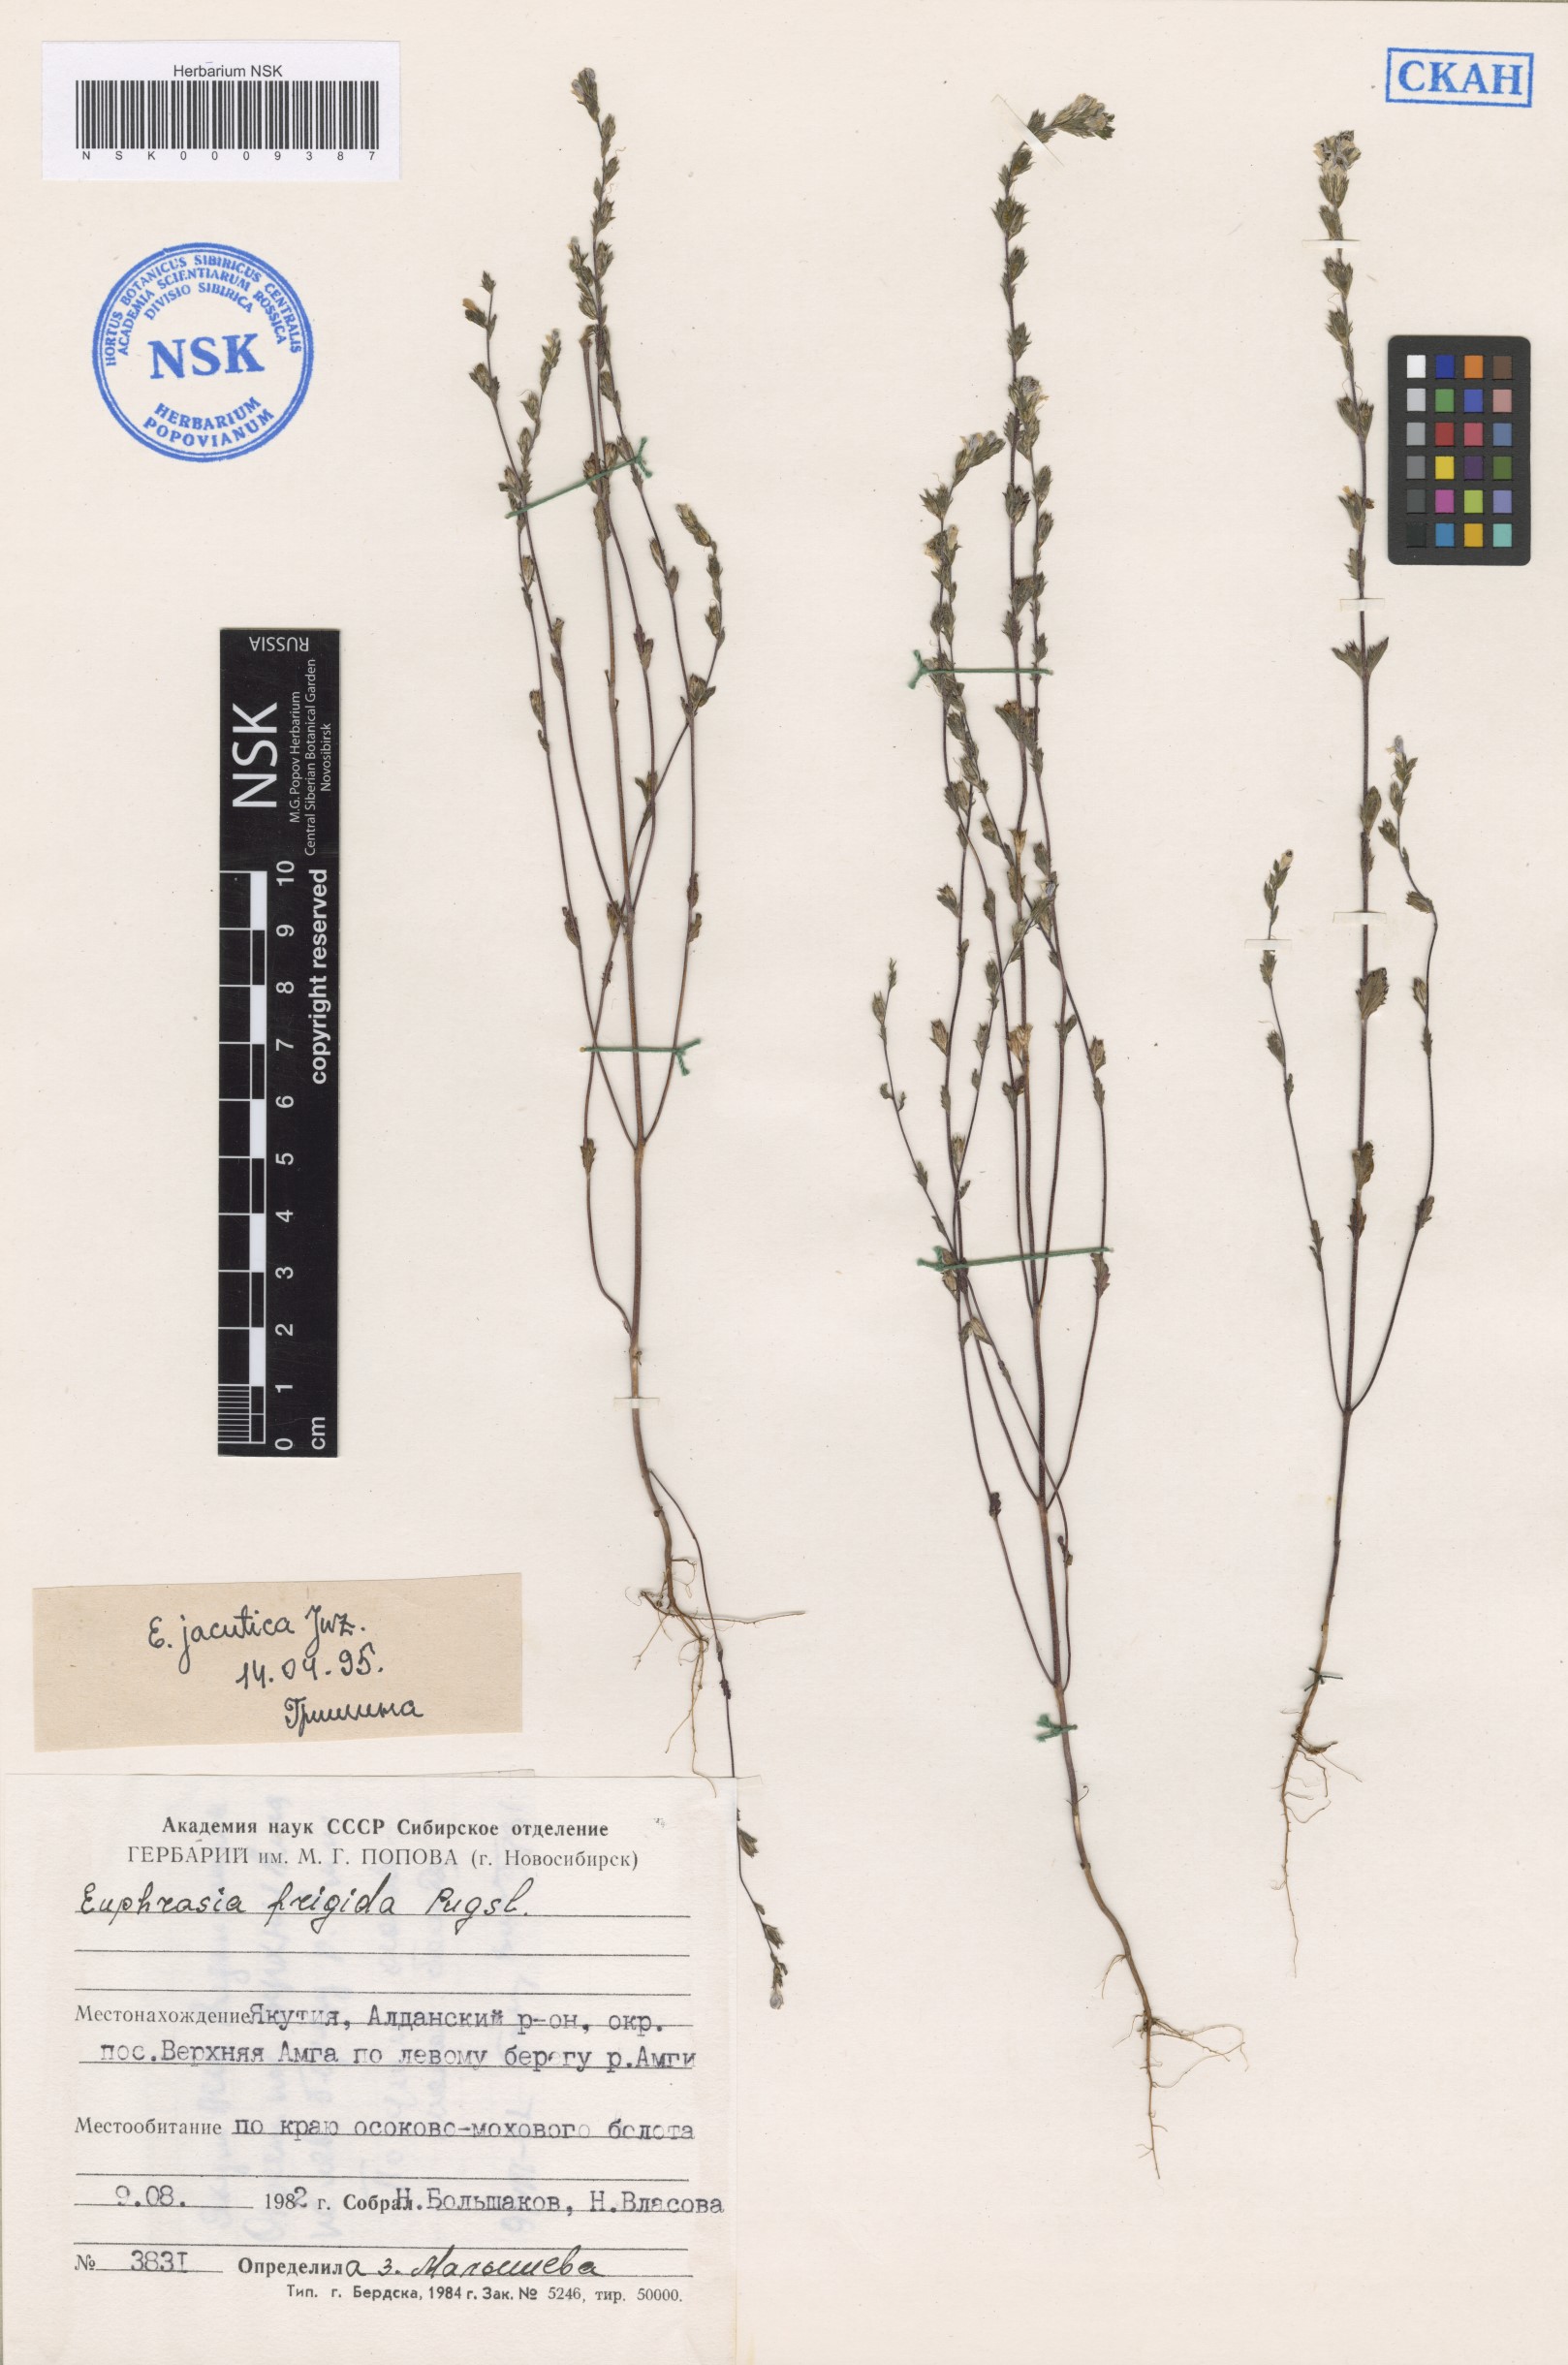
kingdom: Plantae
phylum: Tracheophyta
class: Magnoliopsida
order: Lamiales
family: Orobanchaceae
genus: Euphrasia
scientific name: Euphrasia jacutica
